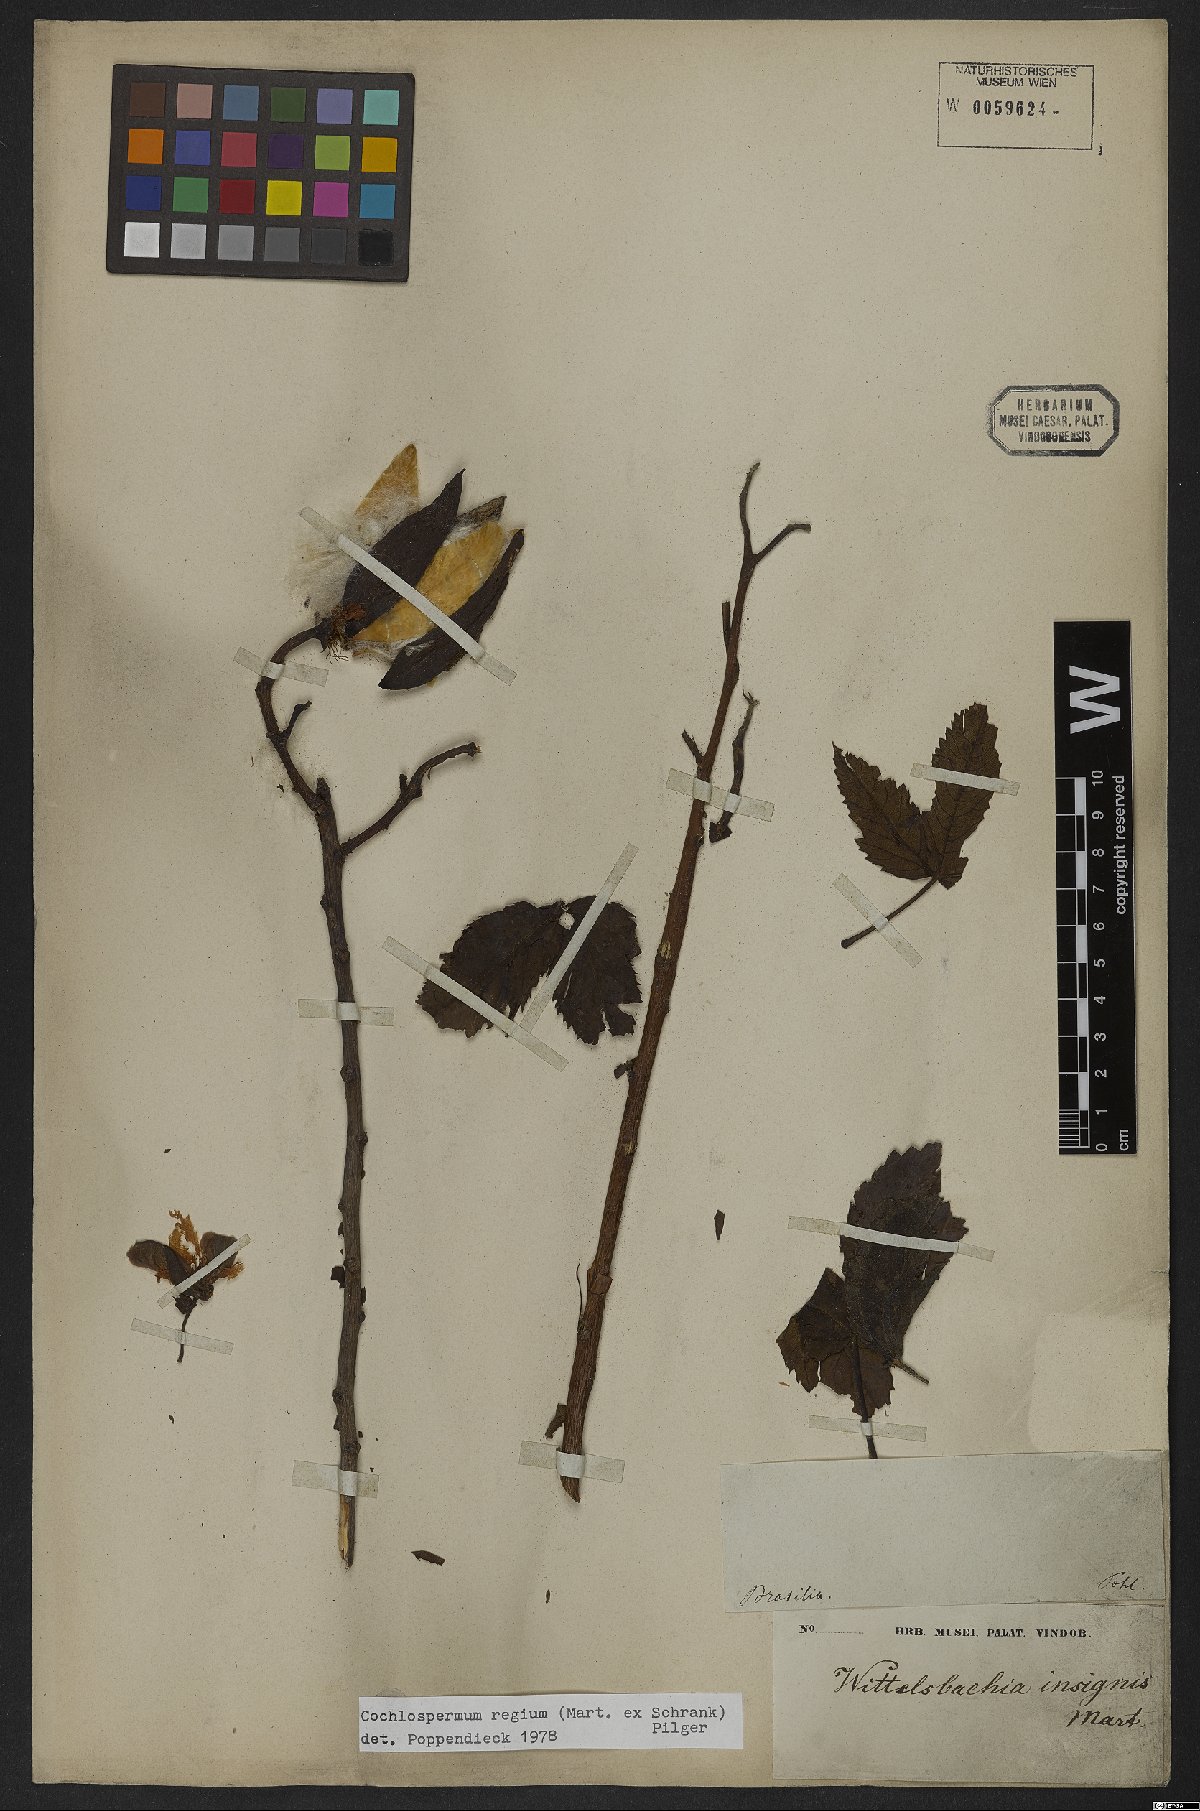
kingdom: Plantae
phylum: Tracheophyta
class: Magnoliopsida
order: Malvales
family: Cochlospermaceae
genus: Cochlospermum
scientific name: Cochlospermum regium
